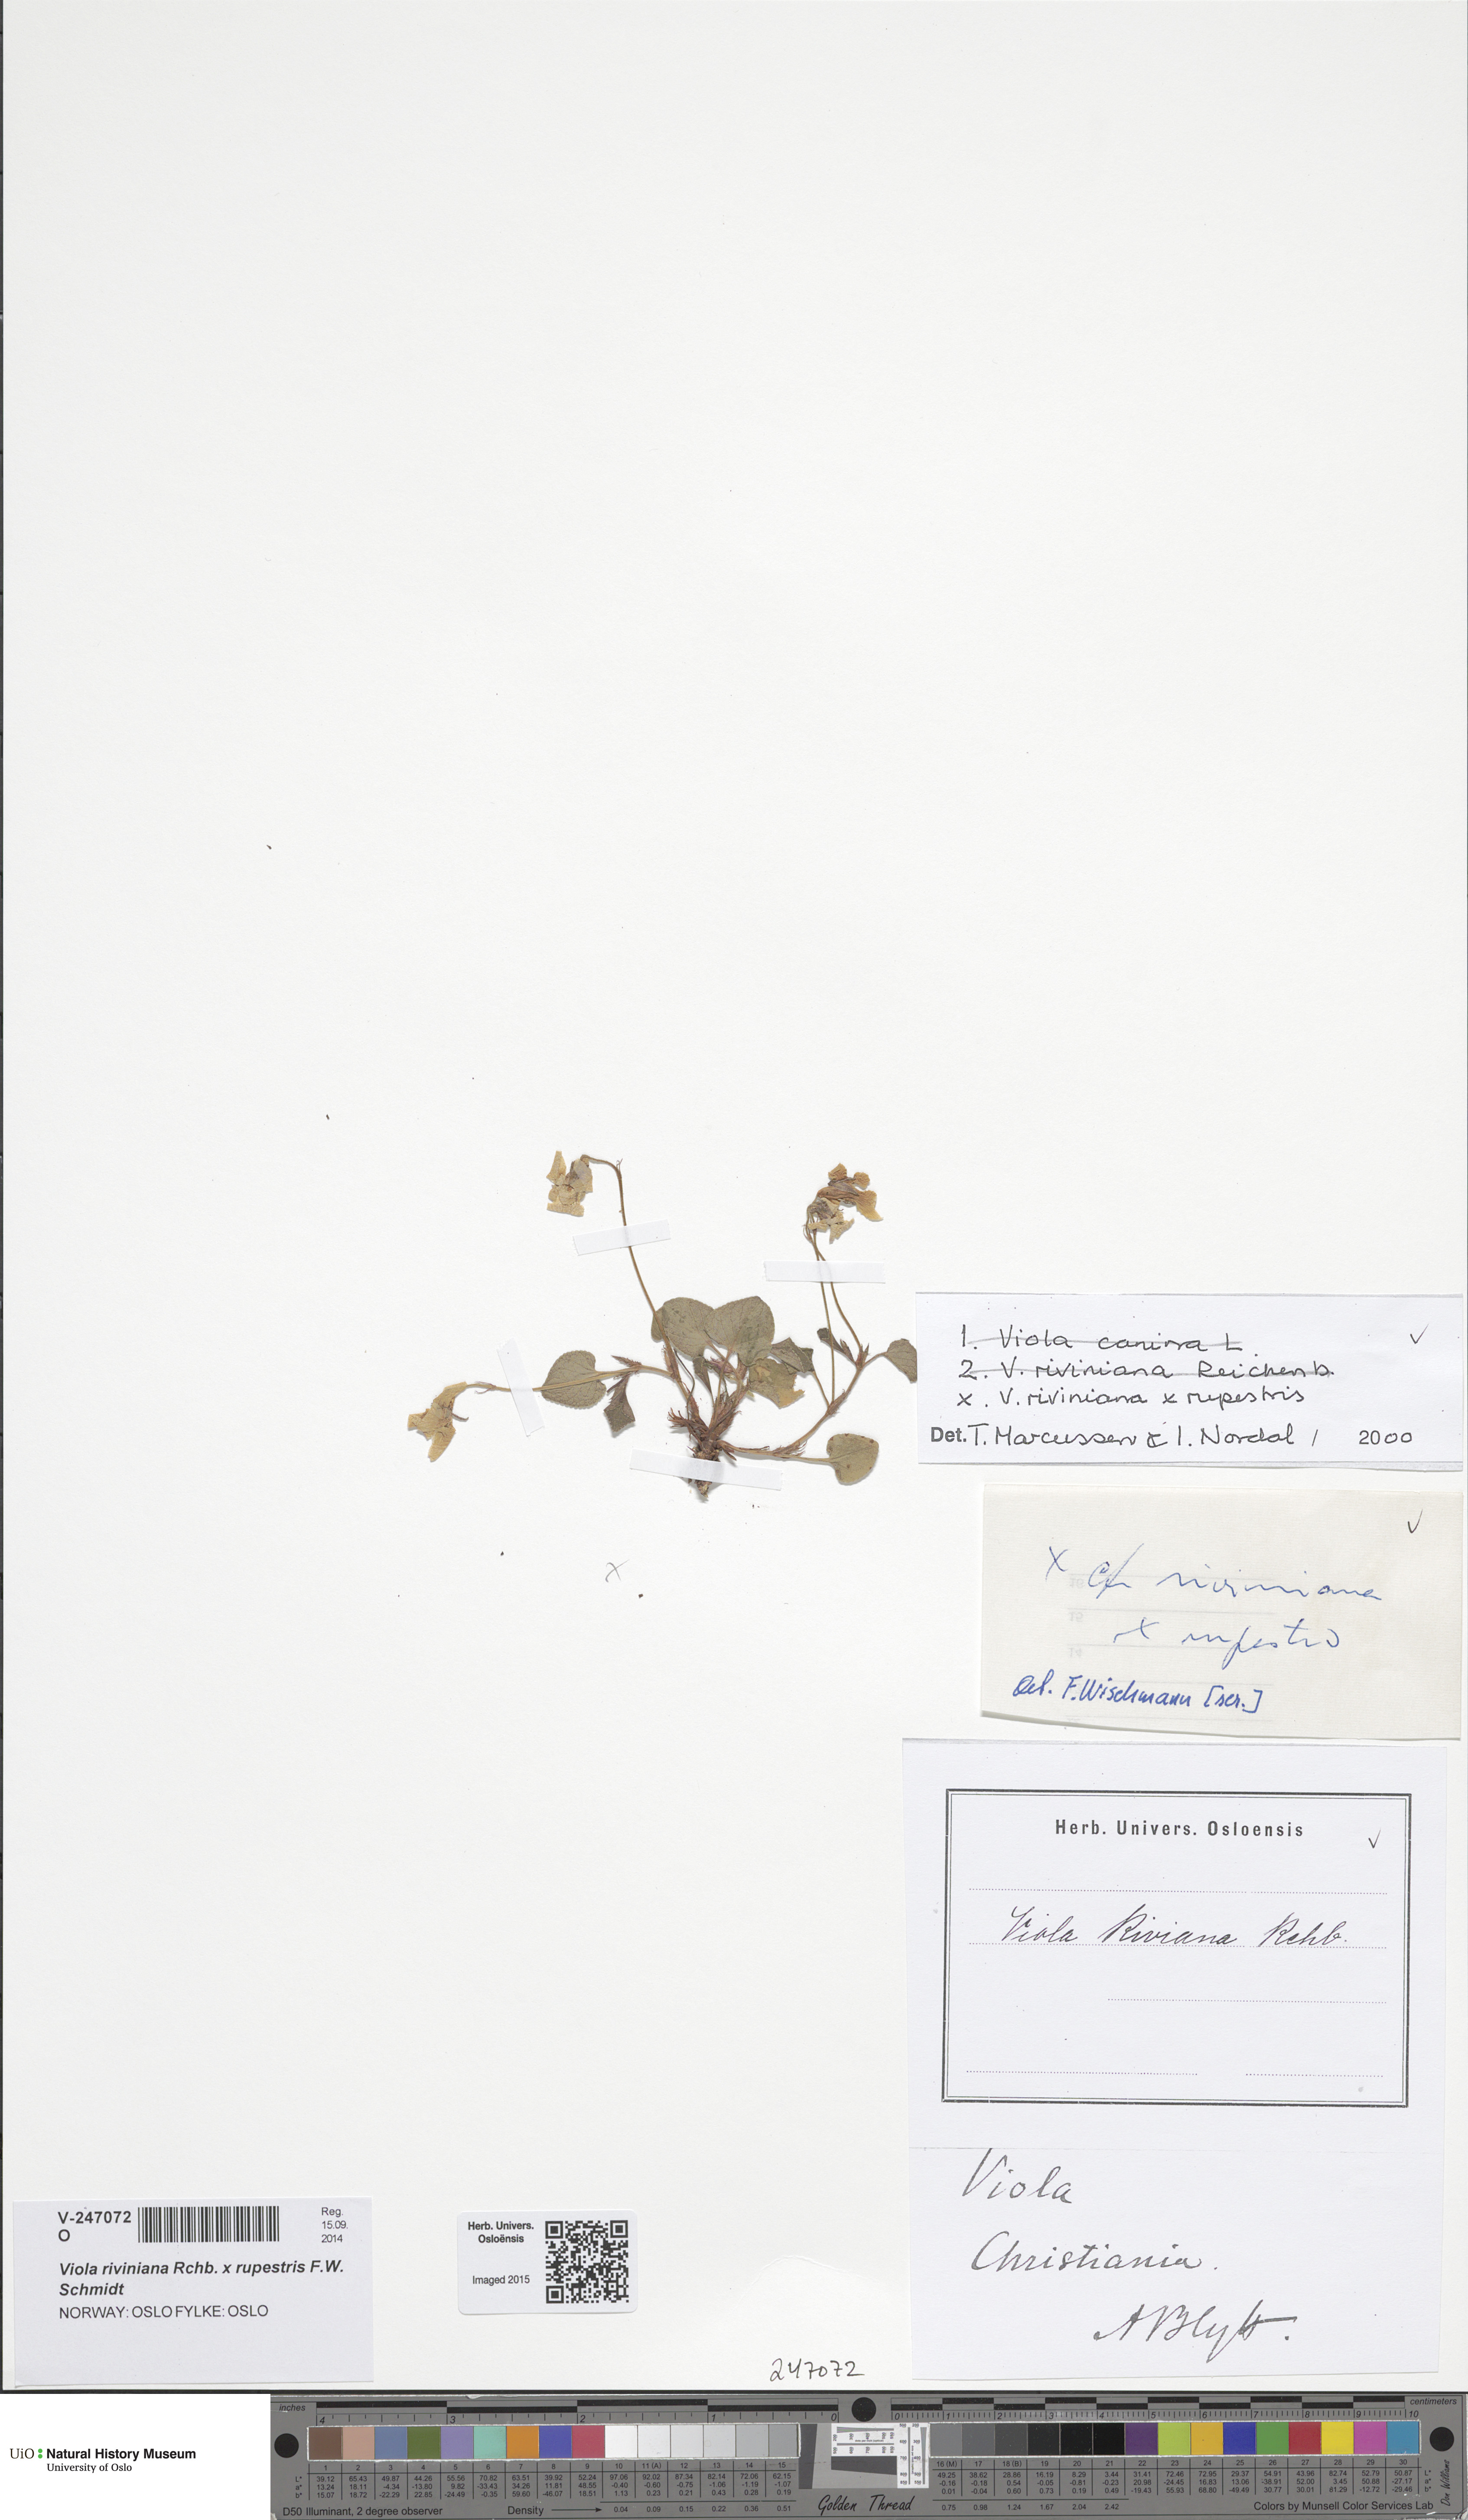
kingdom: Plantae
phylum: Tracheophyta
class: Magnoliopsida
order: Malpighiales
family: Violaceae
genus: Viola
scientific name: Viola
